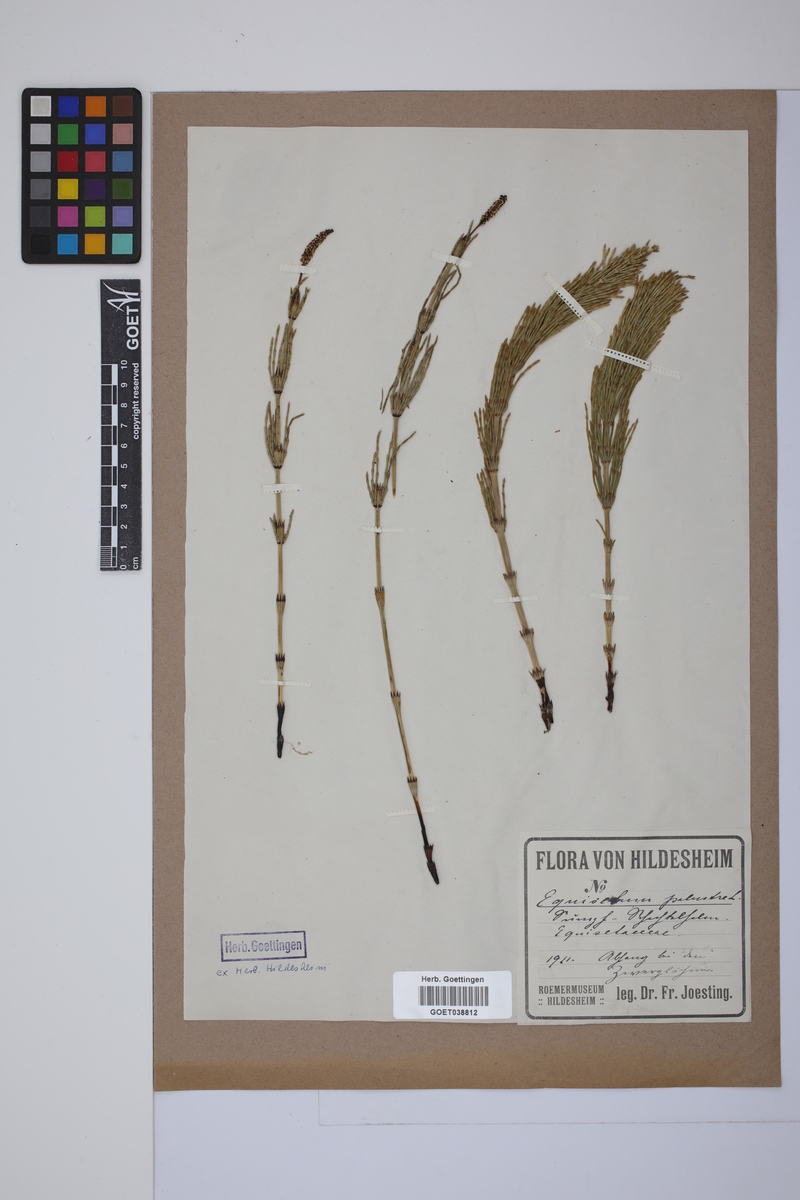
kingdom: Plantae
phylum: Tracheophyta
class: Polypodiopsida
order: Equisetales
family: Equisetaceae
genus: Equisetum
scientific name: Equisetum palustre
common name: Marsh horsetail
